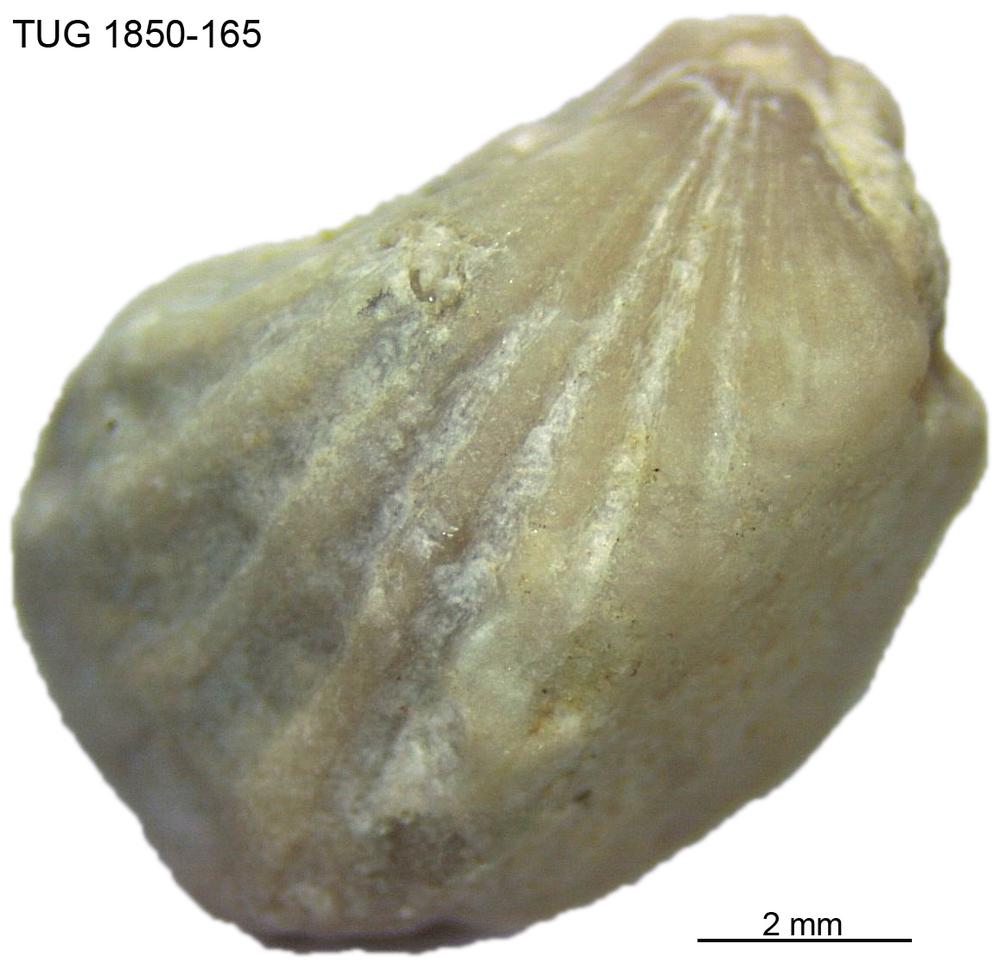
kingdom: Animalia
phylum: Brachiopoda
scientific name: Brachiopoda
